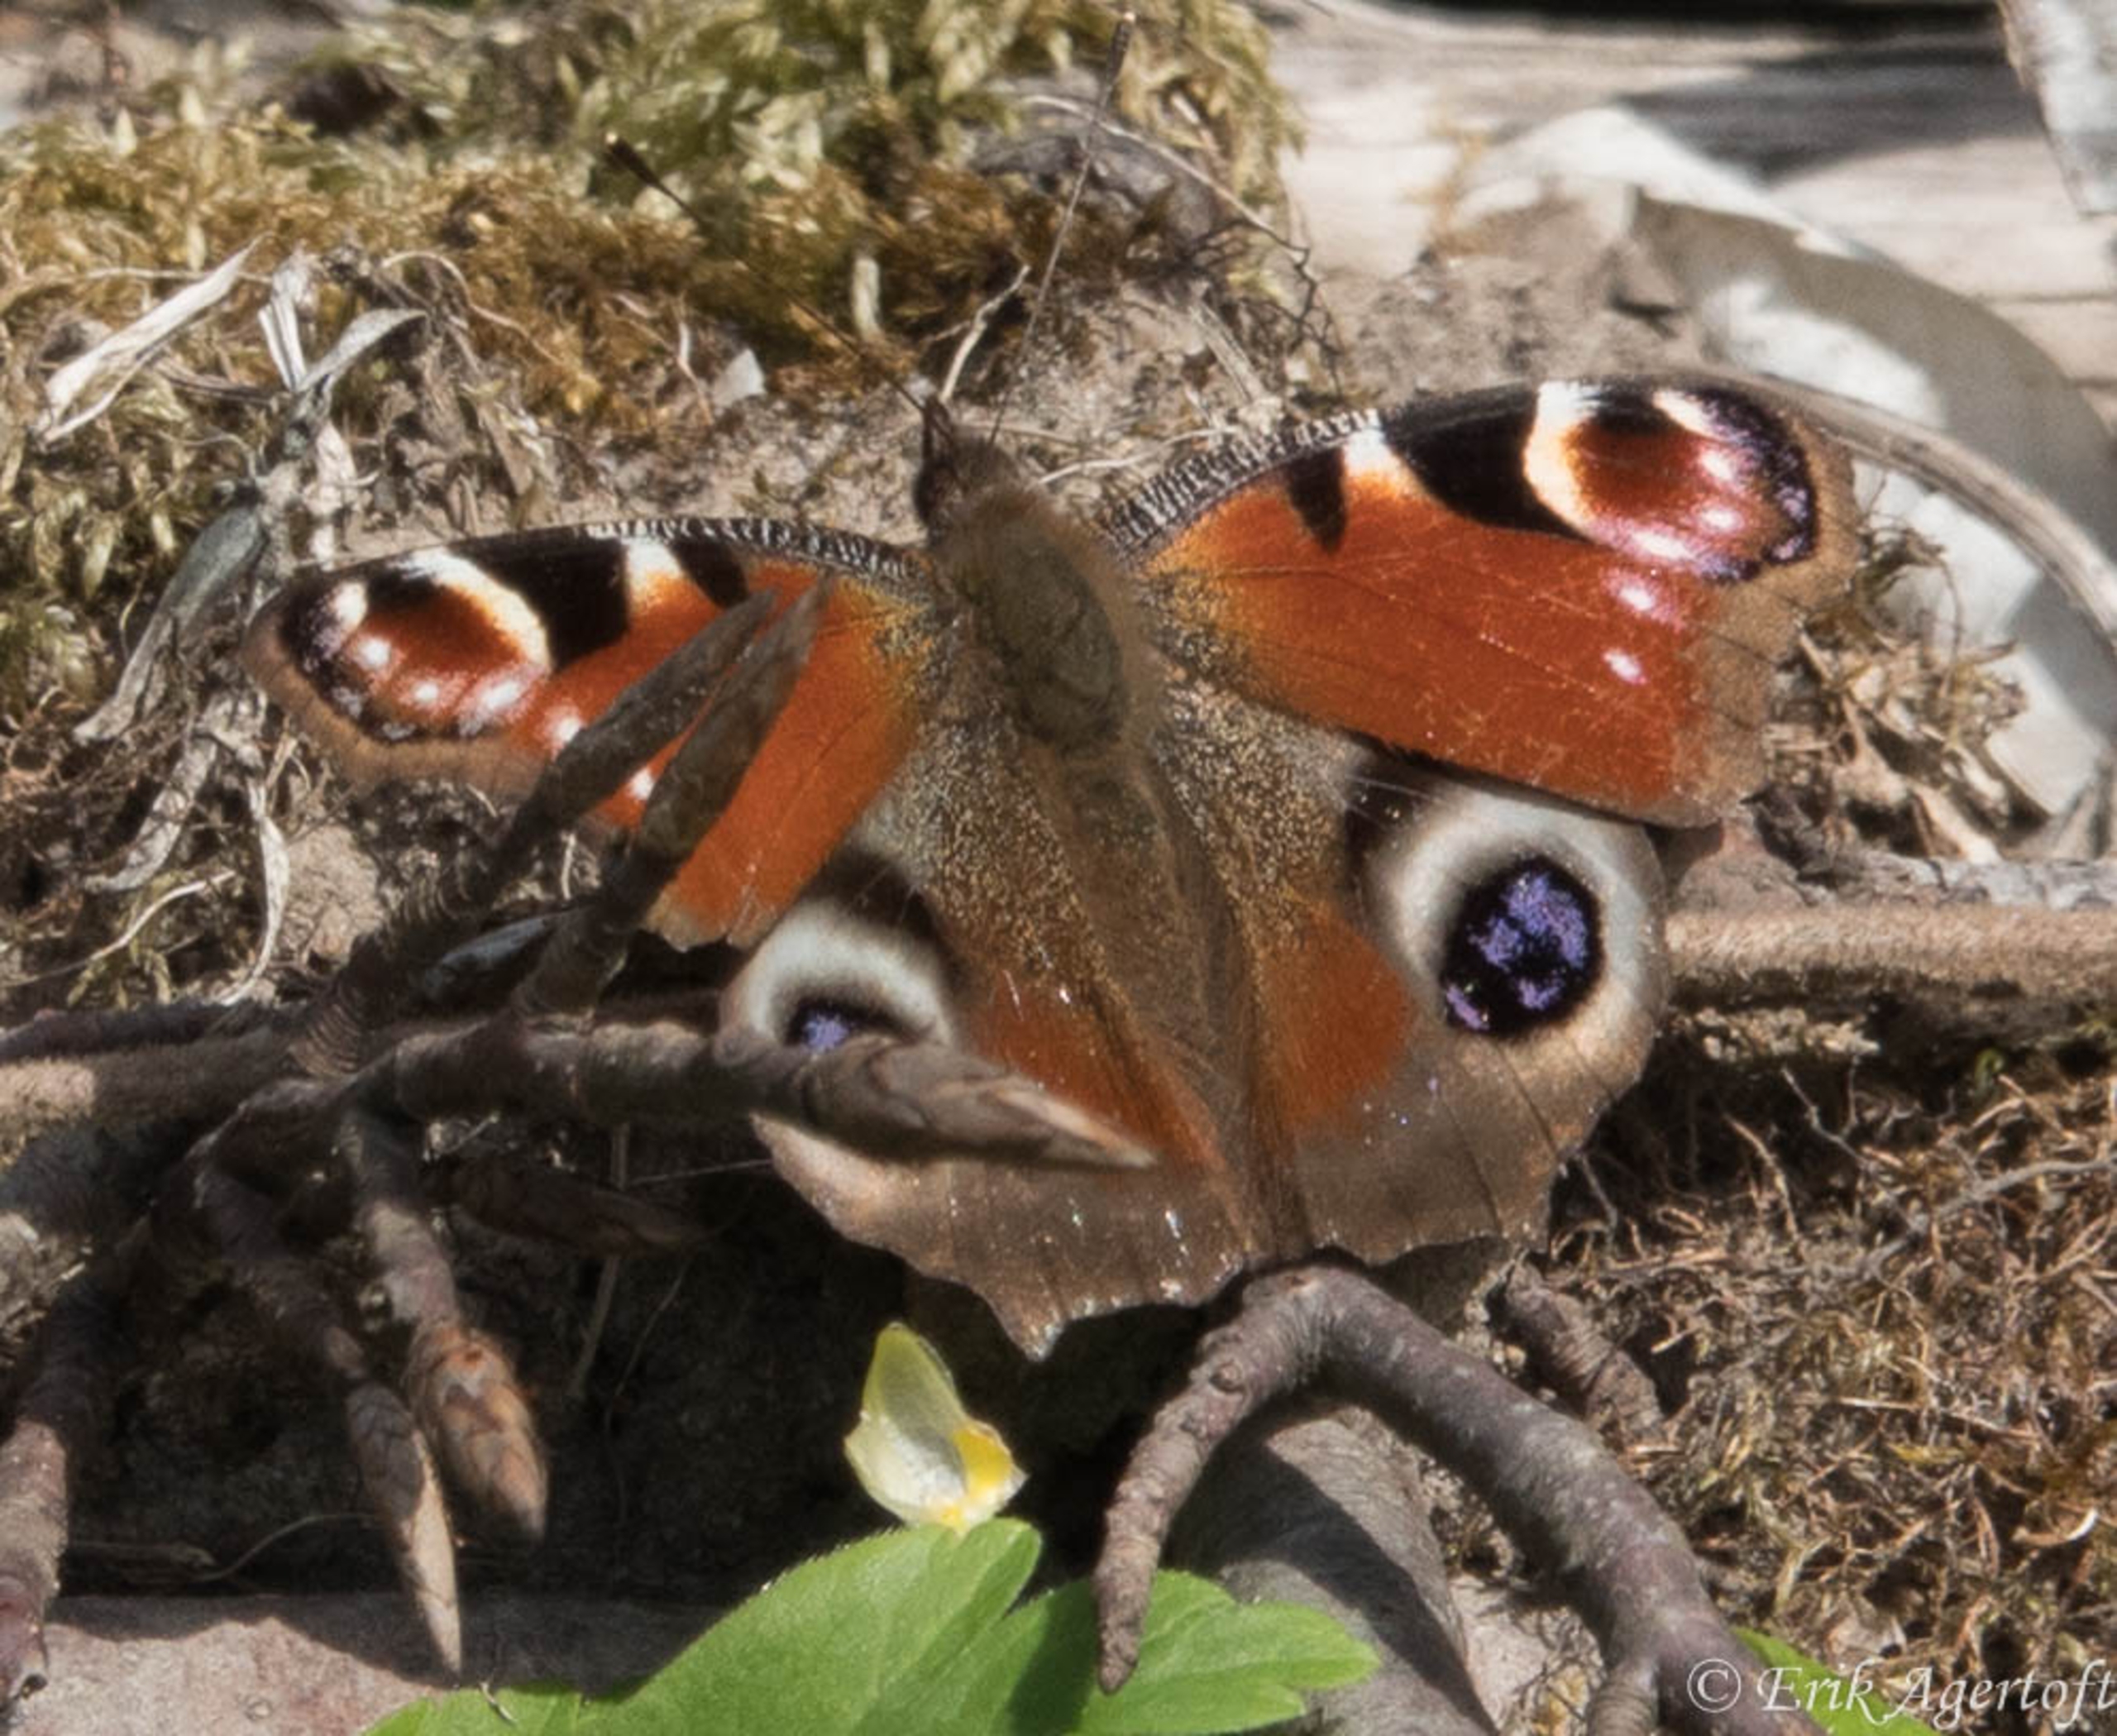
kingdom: Animalia
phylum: Arthropoda
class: Insecta
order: Lepidoptera
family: Nymphalidae
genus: Aglais
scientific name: Aglais io
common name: Dagpåfugleøje
